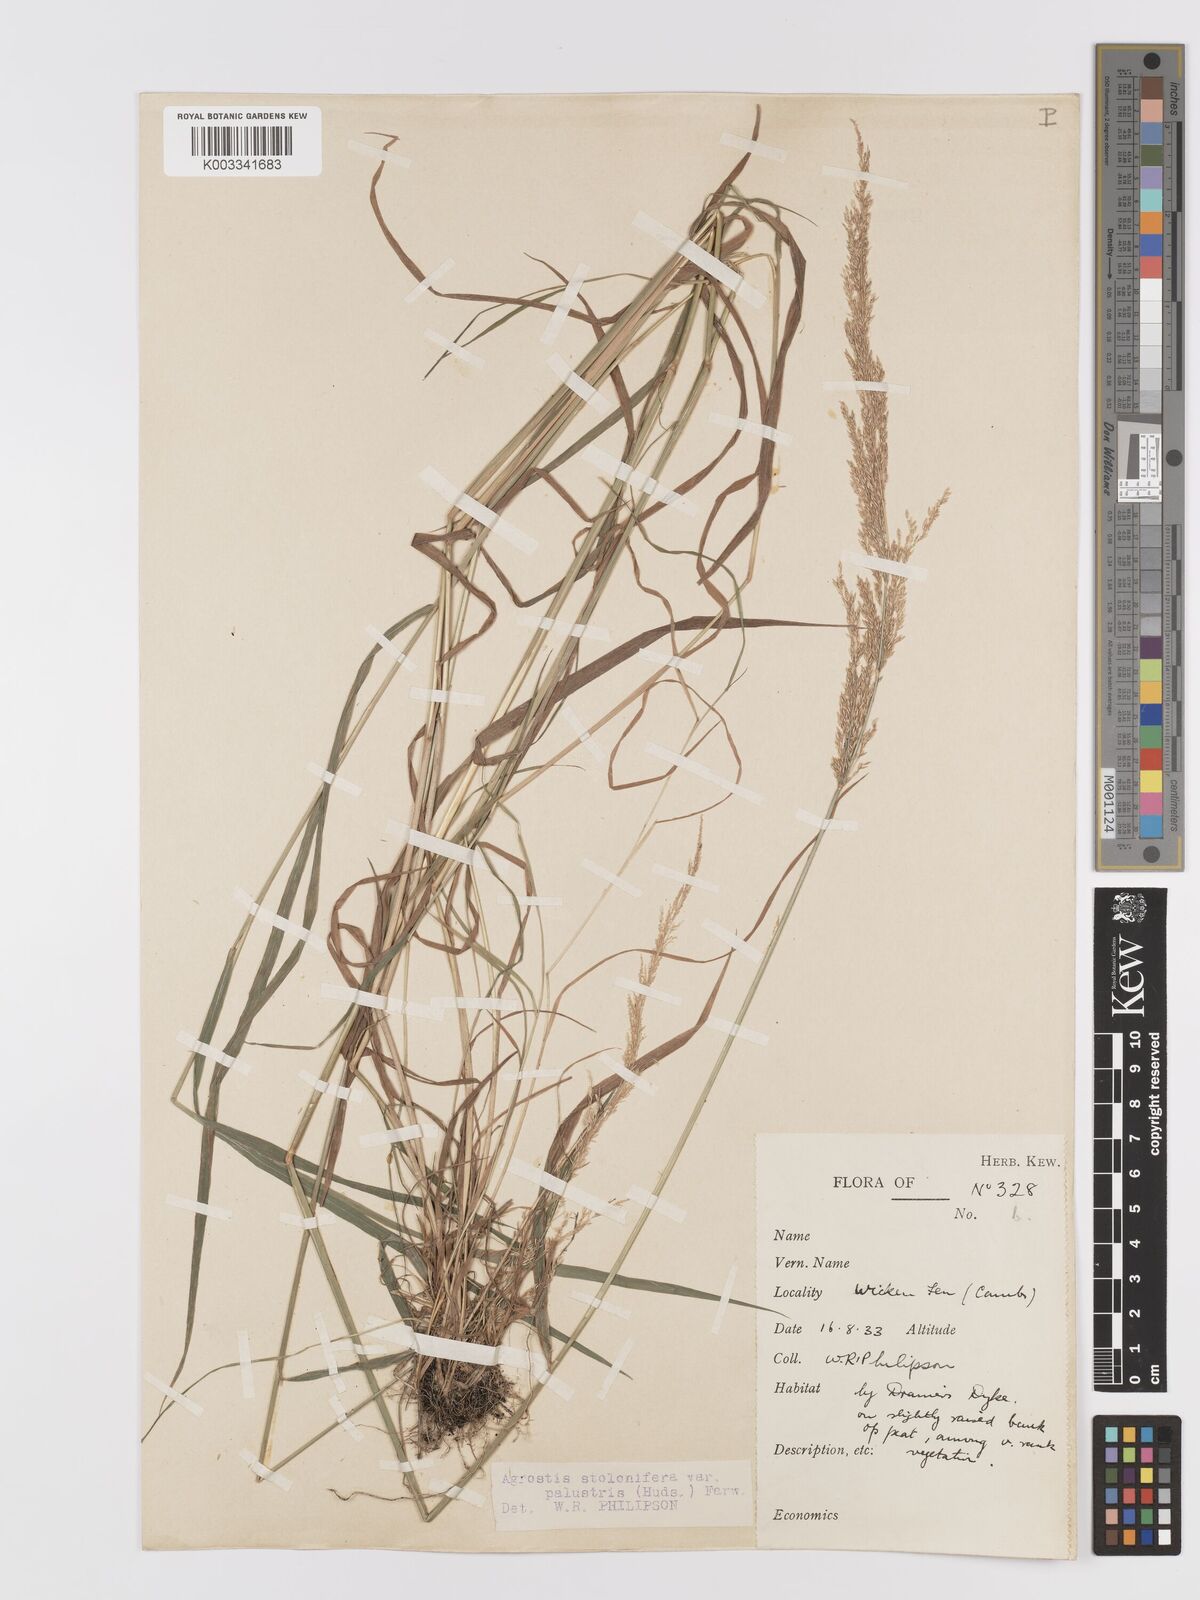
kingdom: Plantae
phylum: Tracheophyta
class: Liliopsida
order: Poales
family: Poaceae
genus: Agrostis
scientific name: Agrostis stolonifera
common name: Creeping bentgrass
